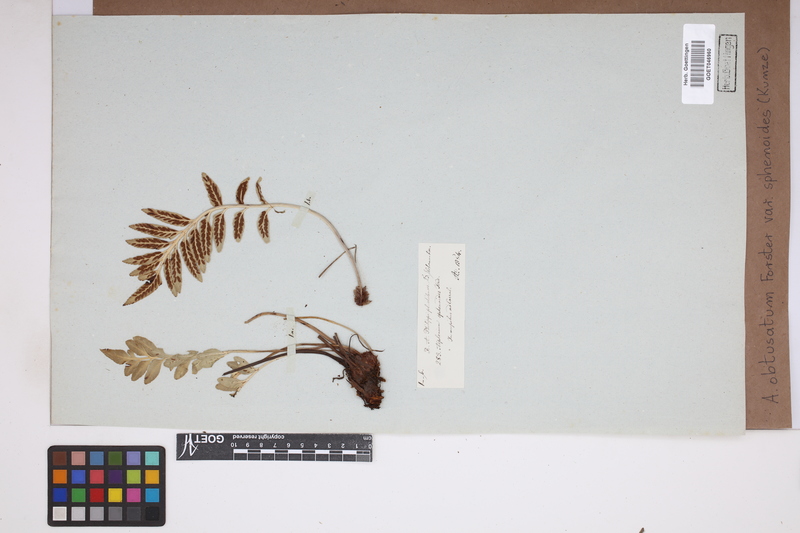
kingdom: Plantae
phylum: Tracheophyta
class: Polypodiopsida
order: Polypodiales
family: Aspleniaceae
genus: Asplenium
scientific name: Asplenium sphenoides
